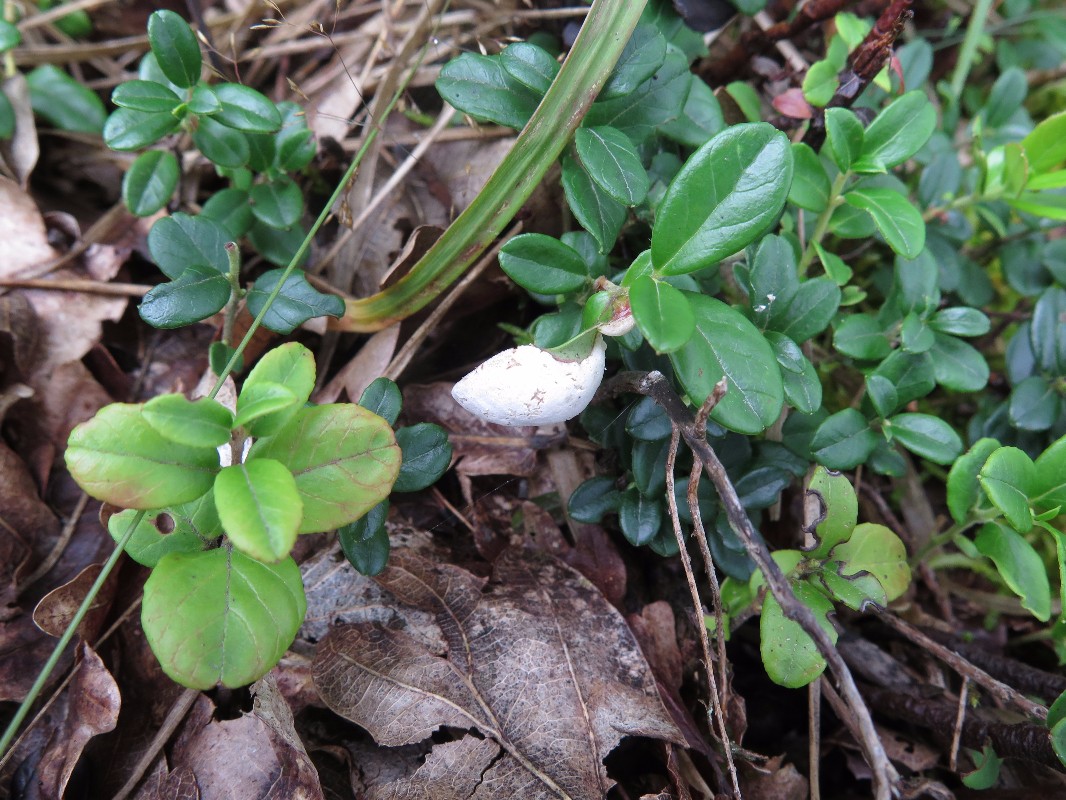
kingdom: Fungi
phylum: Basidiomycota
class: Exobasidiomycetes
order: Exobasidiales
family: Exobasidiaceae
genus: Exobasidium
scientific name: Exobasidium vaccinii
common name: tyttebærblad-bøllesvamp
